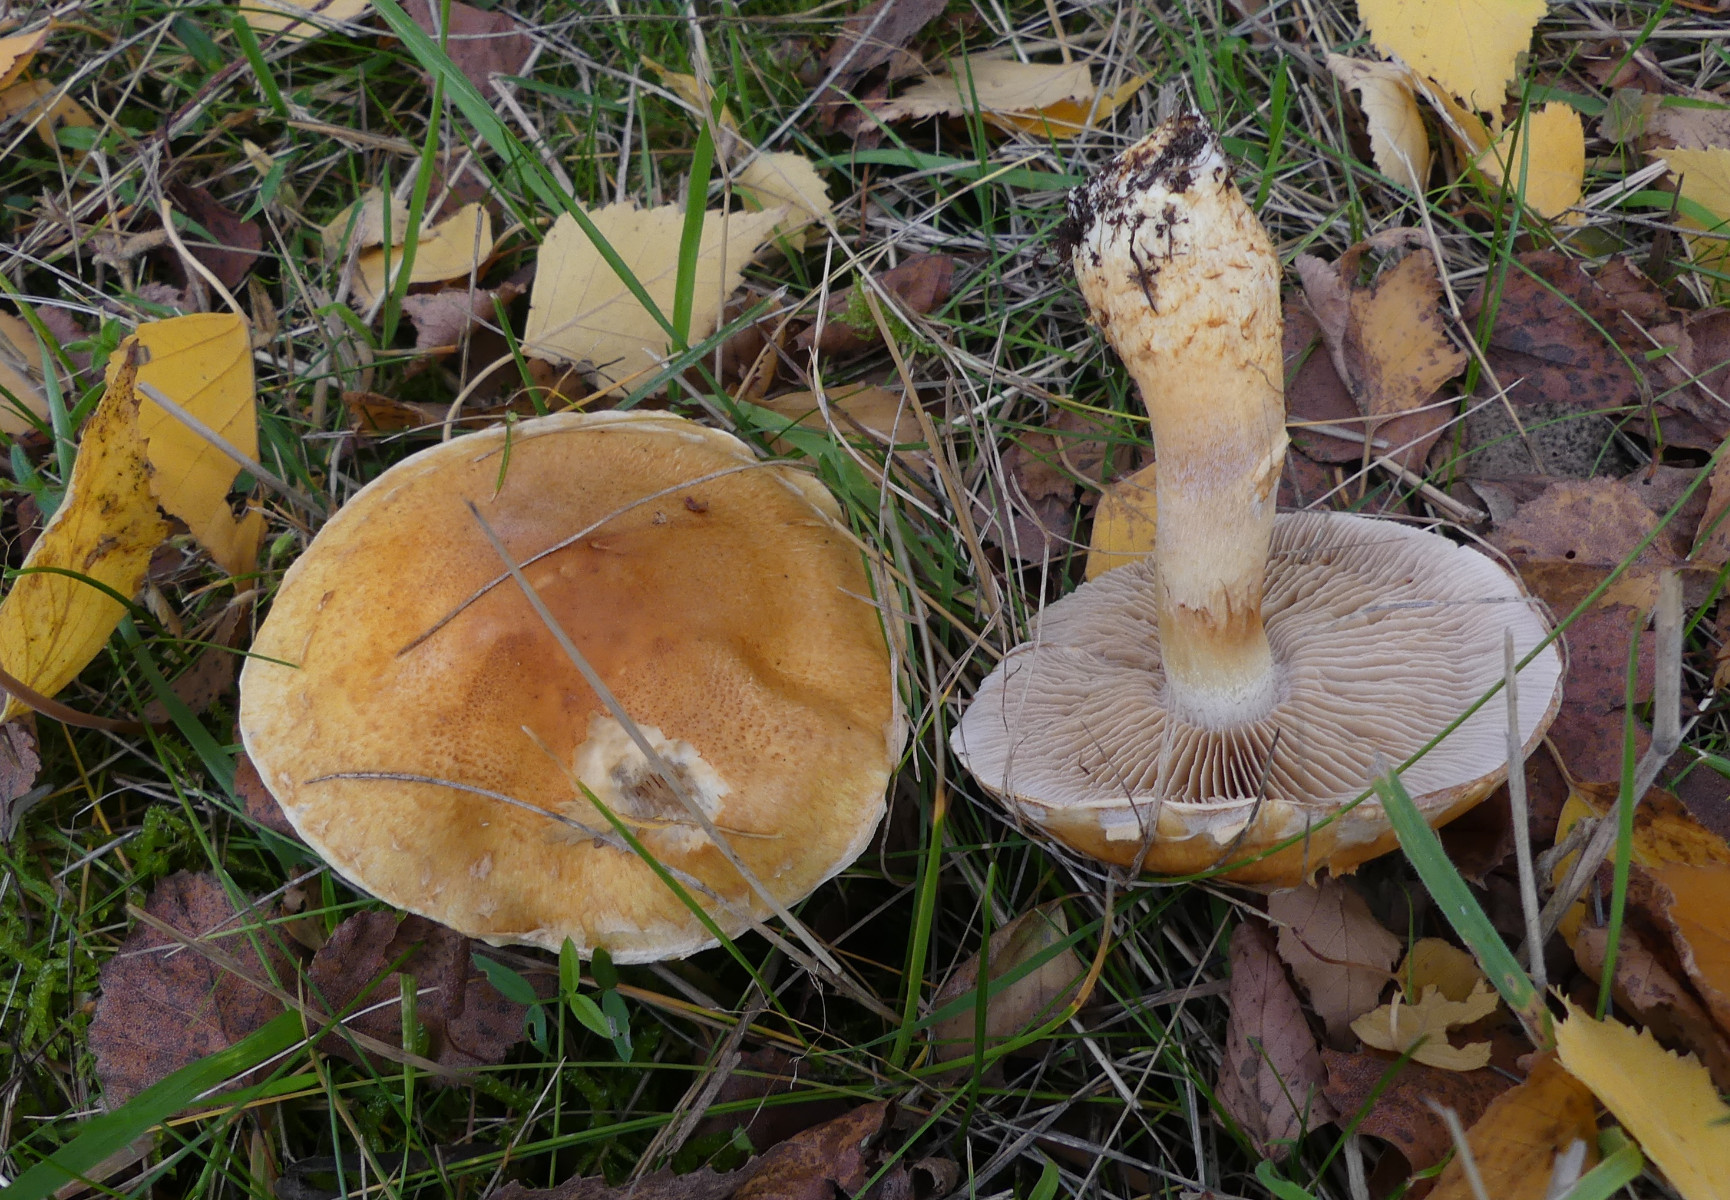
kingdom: Fungi
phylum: Basidiomycota
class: Agaricomycetes
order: Agaricales
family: Cortinariaceae
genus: Phlegmacium
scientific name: Phlegmacium triumphans
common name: gulbæltet slørhat
